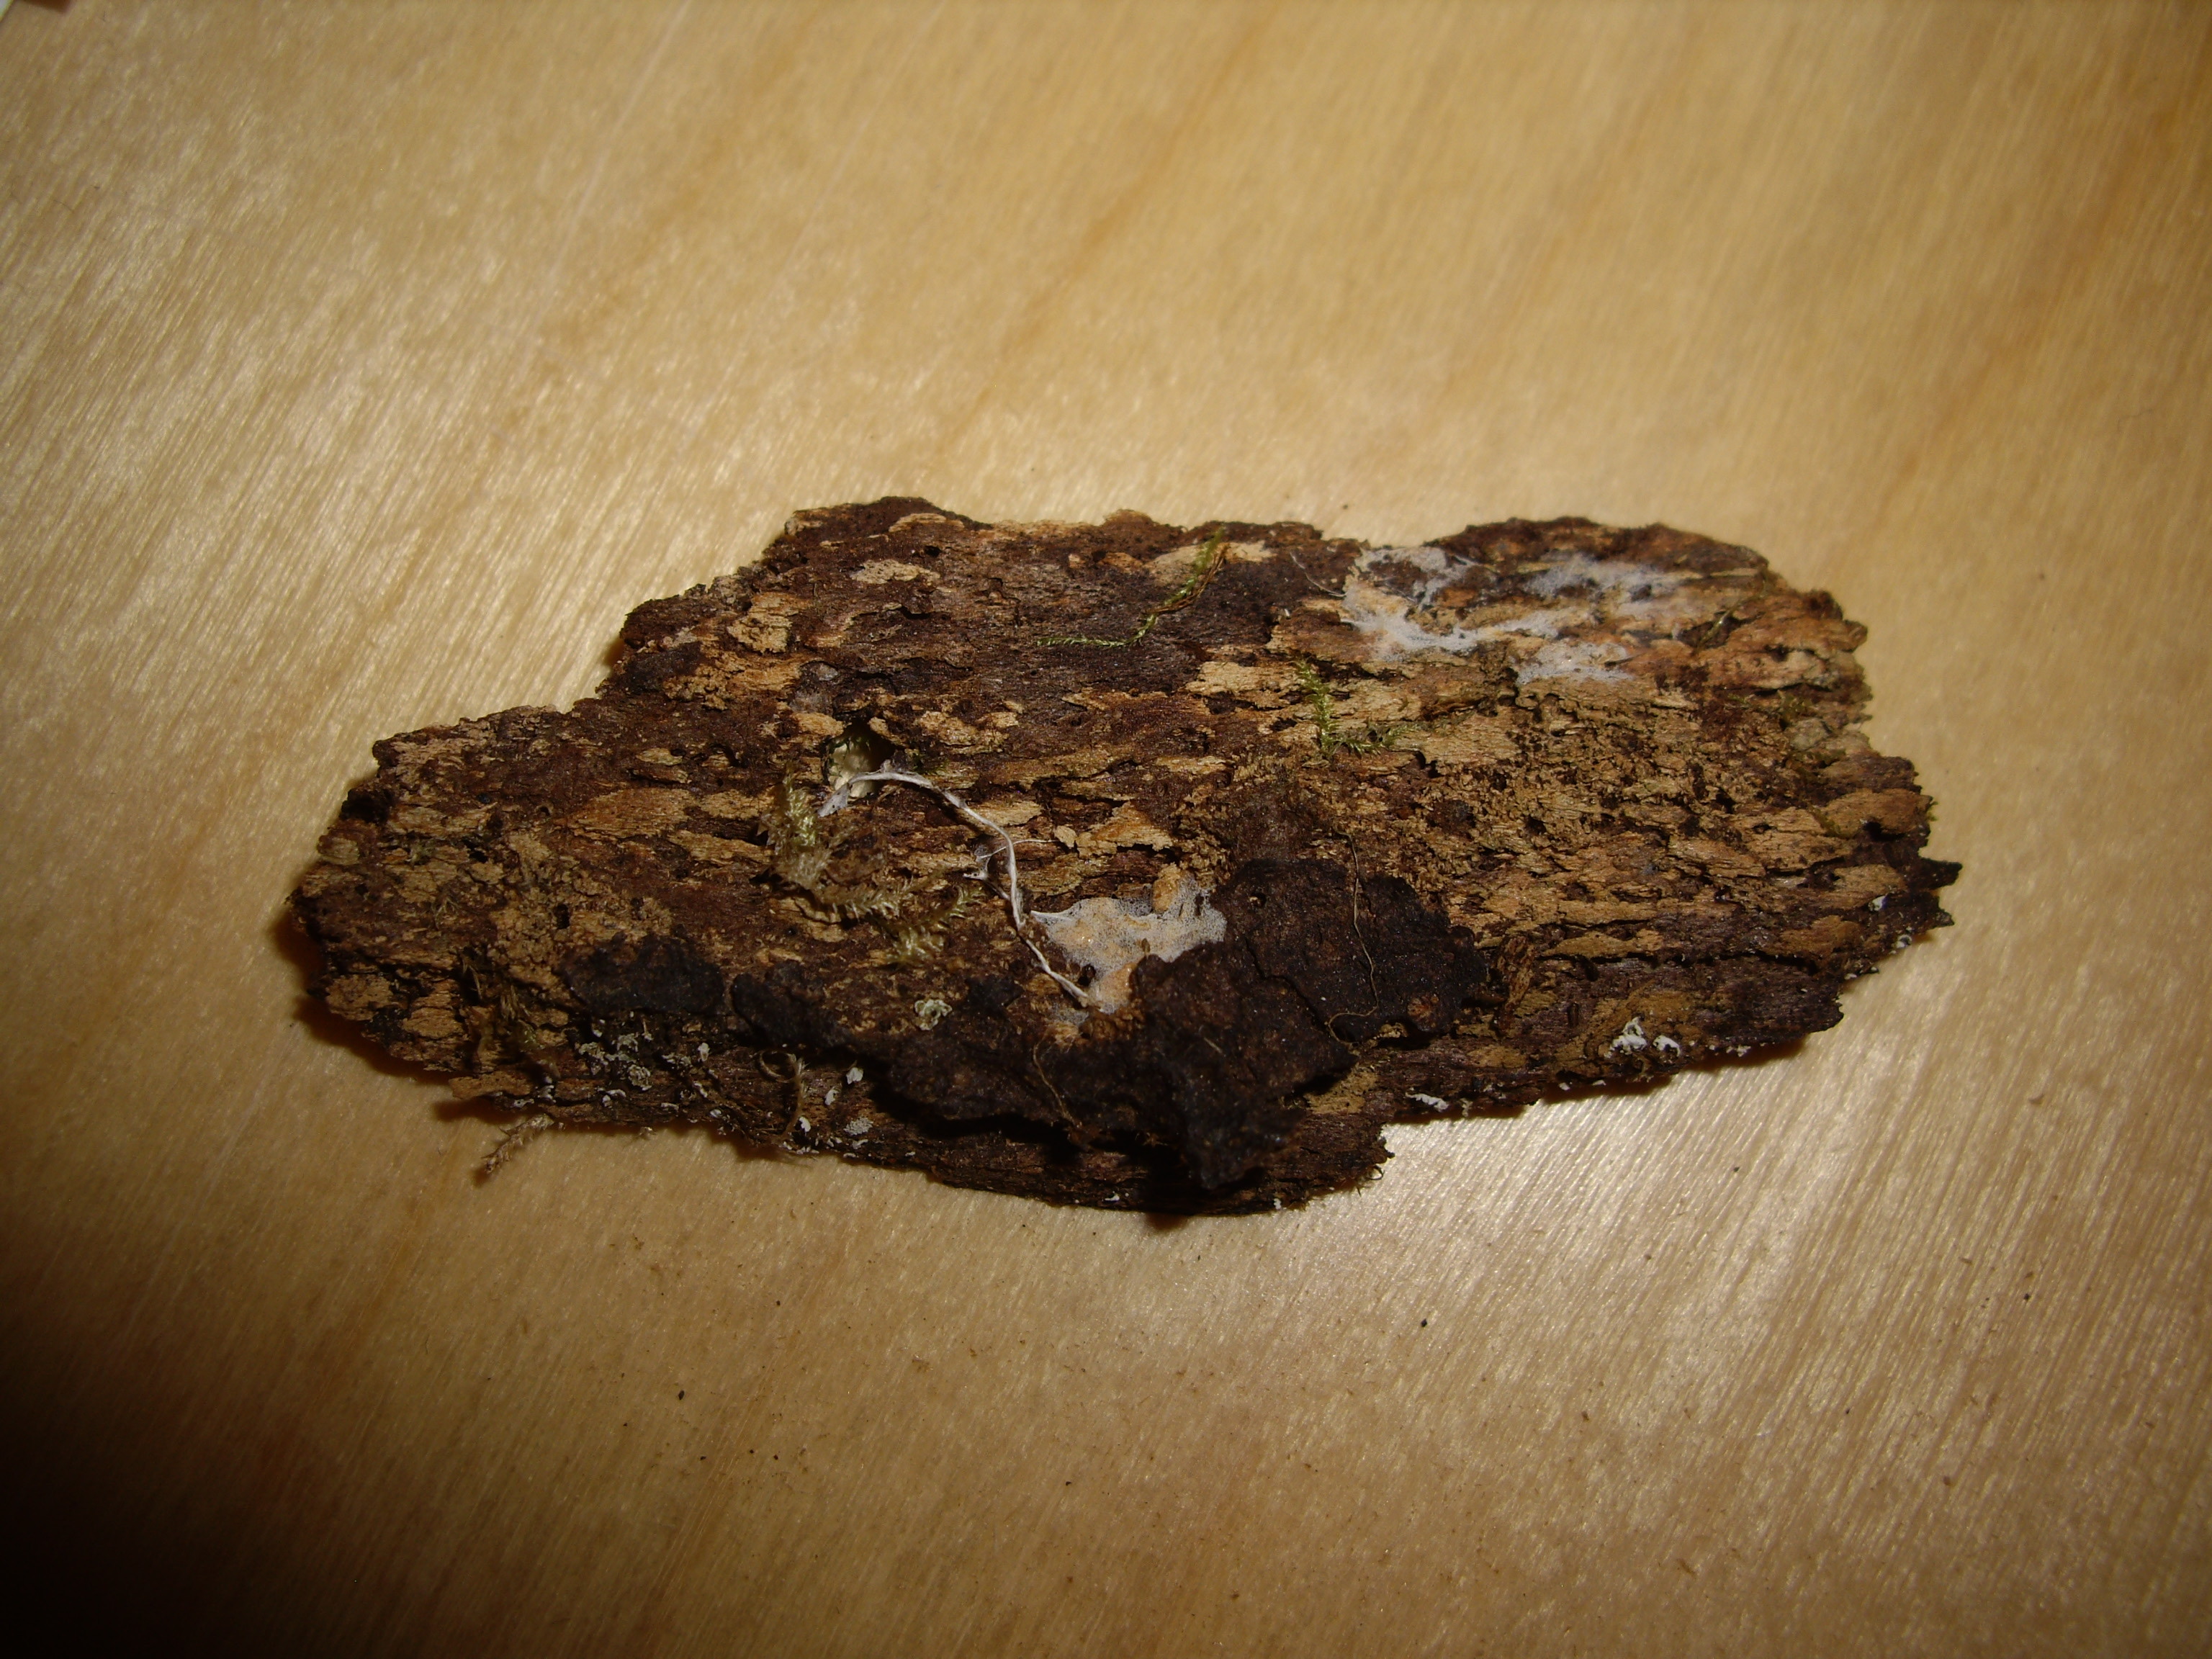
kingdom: Fungi
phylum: Basidiomycota
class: Agaricomycetes
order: Trechisporales
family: Sistotremataceae
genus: Trechispora
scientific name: Trechispora microspora
